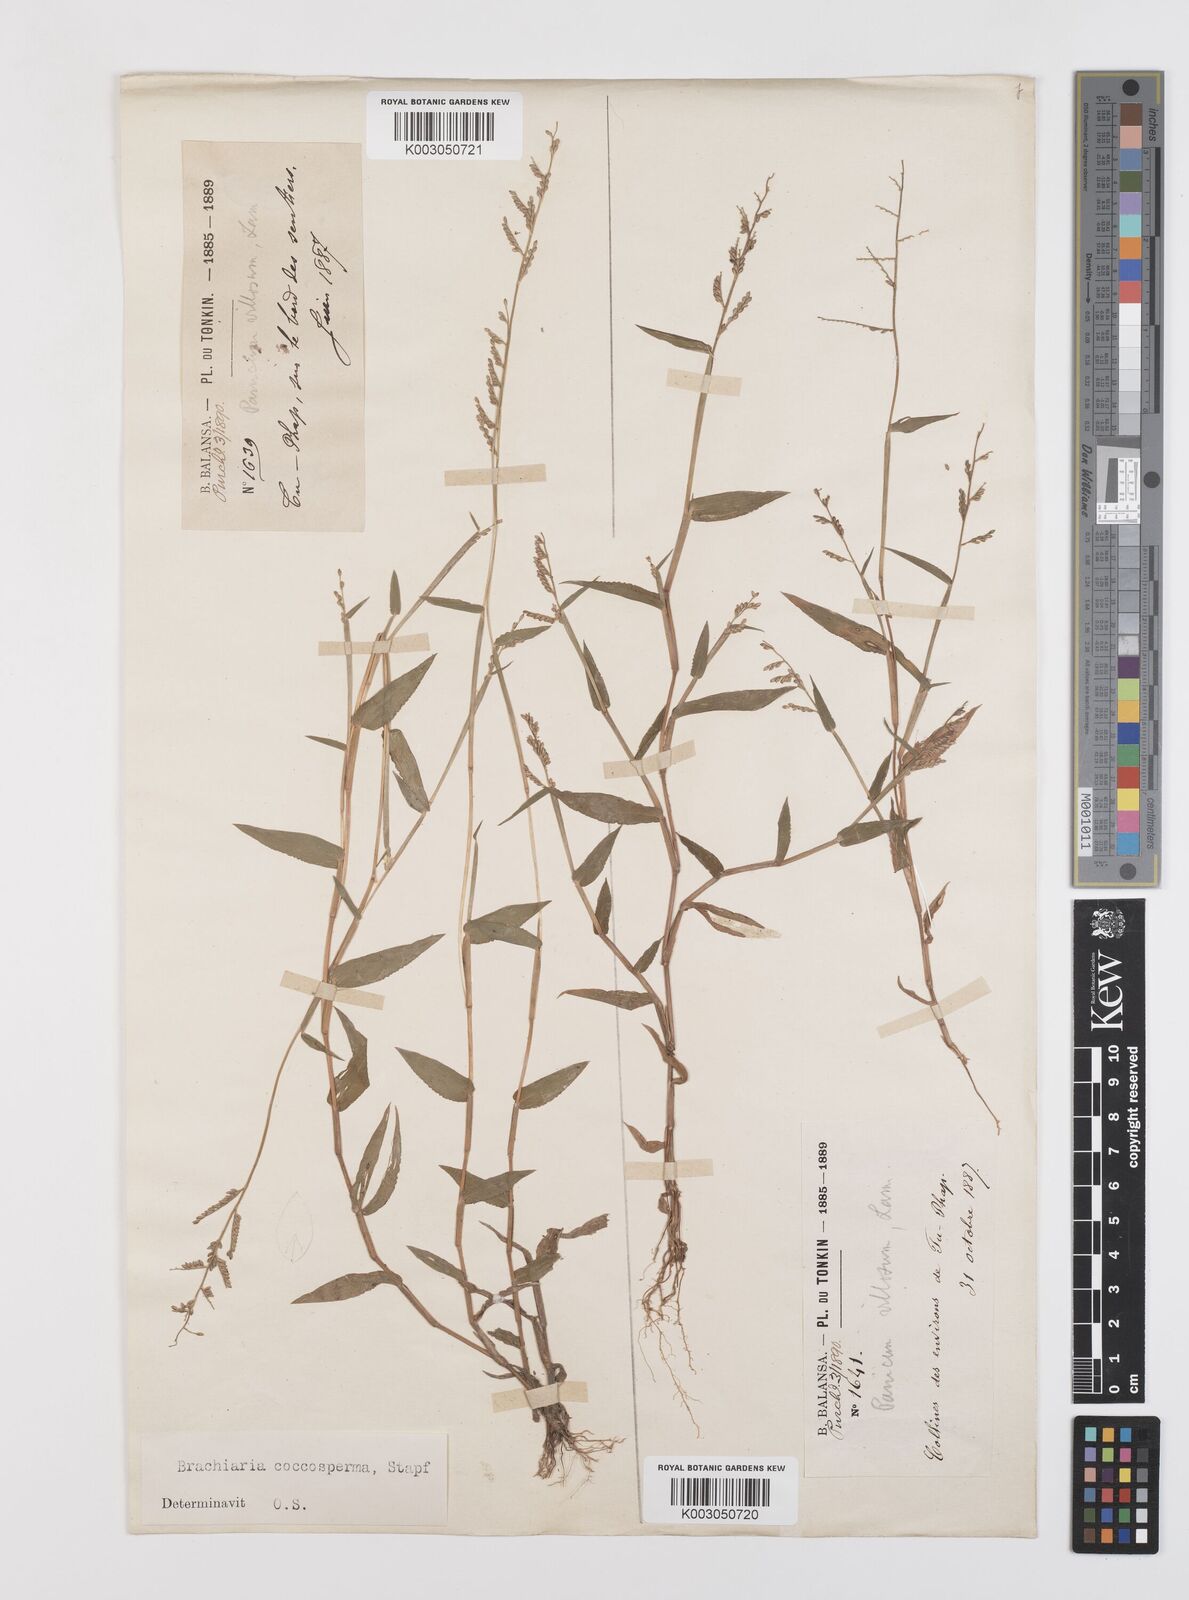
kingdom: Plantae
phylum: Tracheophyta
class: Liliopsida
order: Poales
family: Poaceae
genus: Urochloa
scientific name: Urochloa villosa
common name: Hairy signalgrass
